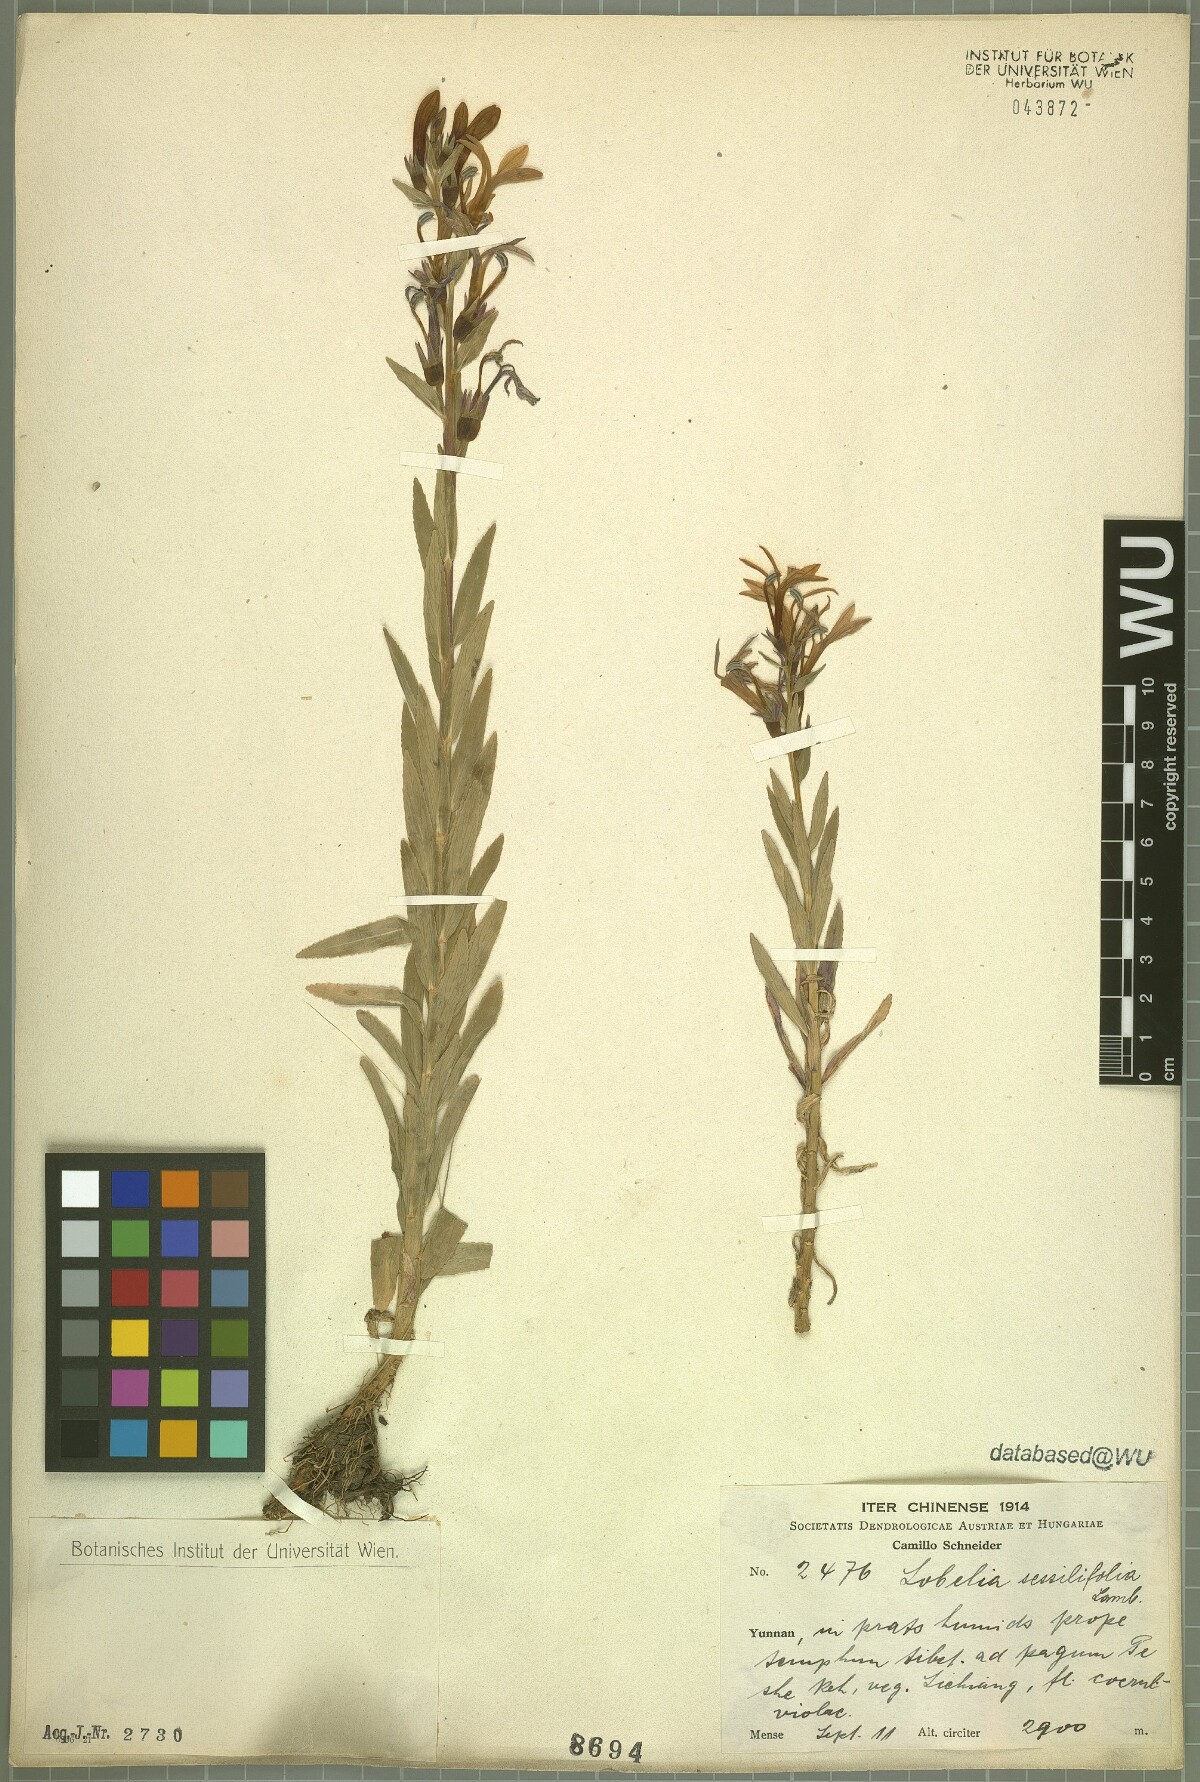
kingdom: Plantae
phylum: Tracheophyta
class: Magnoliopsida
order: Asterales
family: Campanulaceae
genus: Lobelia
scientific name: Lobelia sessilifolia
